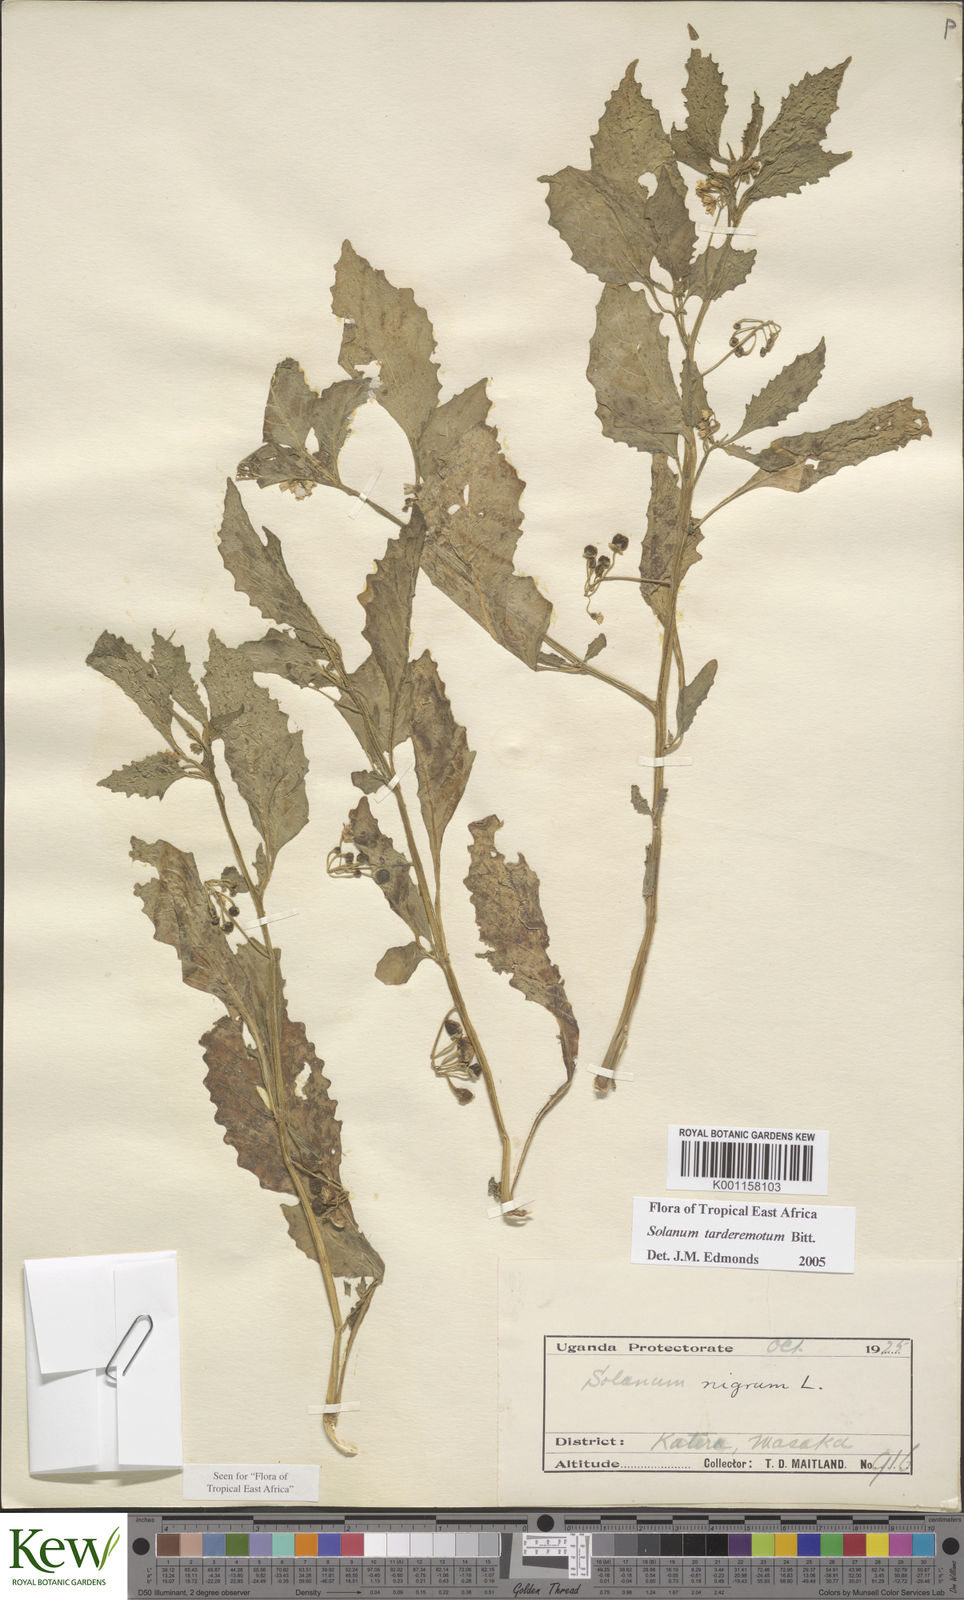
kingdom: Plantae
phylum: Tracheophyta
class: Magnoliopsida
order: Solanales
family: Solanaceae
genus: Solanum
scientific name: Solanum tarderemotum
